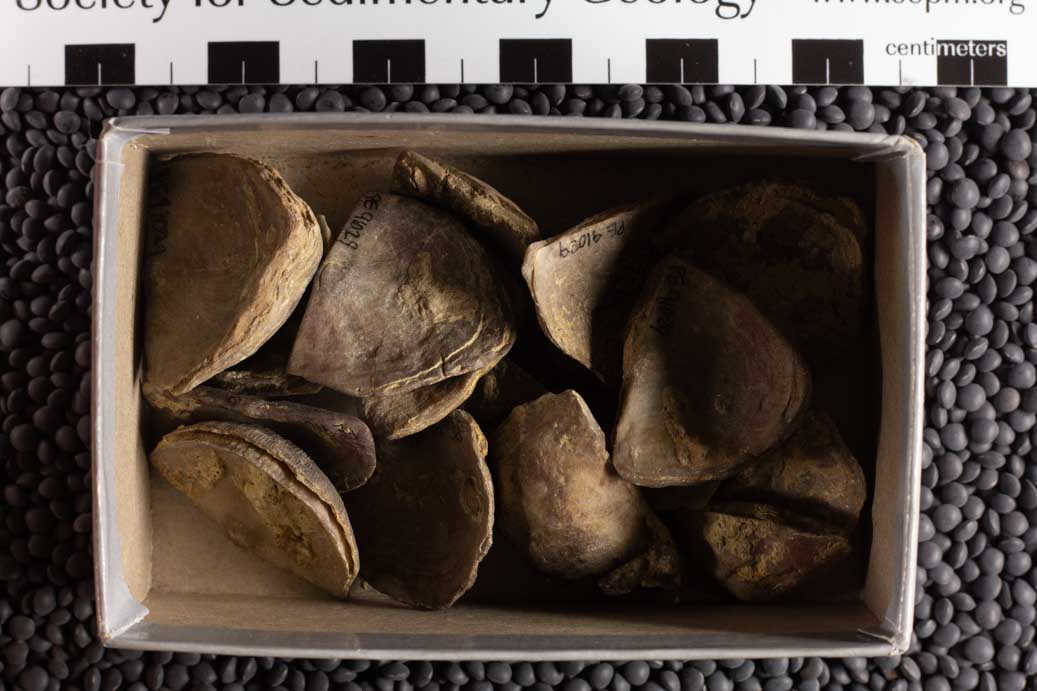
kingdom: Animalia
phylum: Brachiopoda
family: Streptorhynchidae
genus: Streptorhynchus
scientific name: Streptorhynchus
